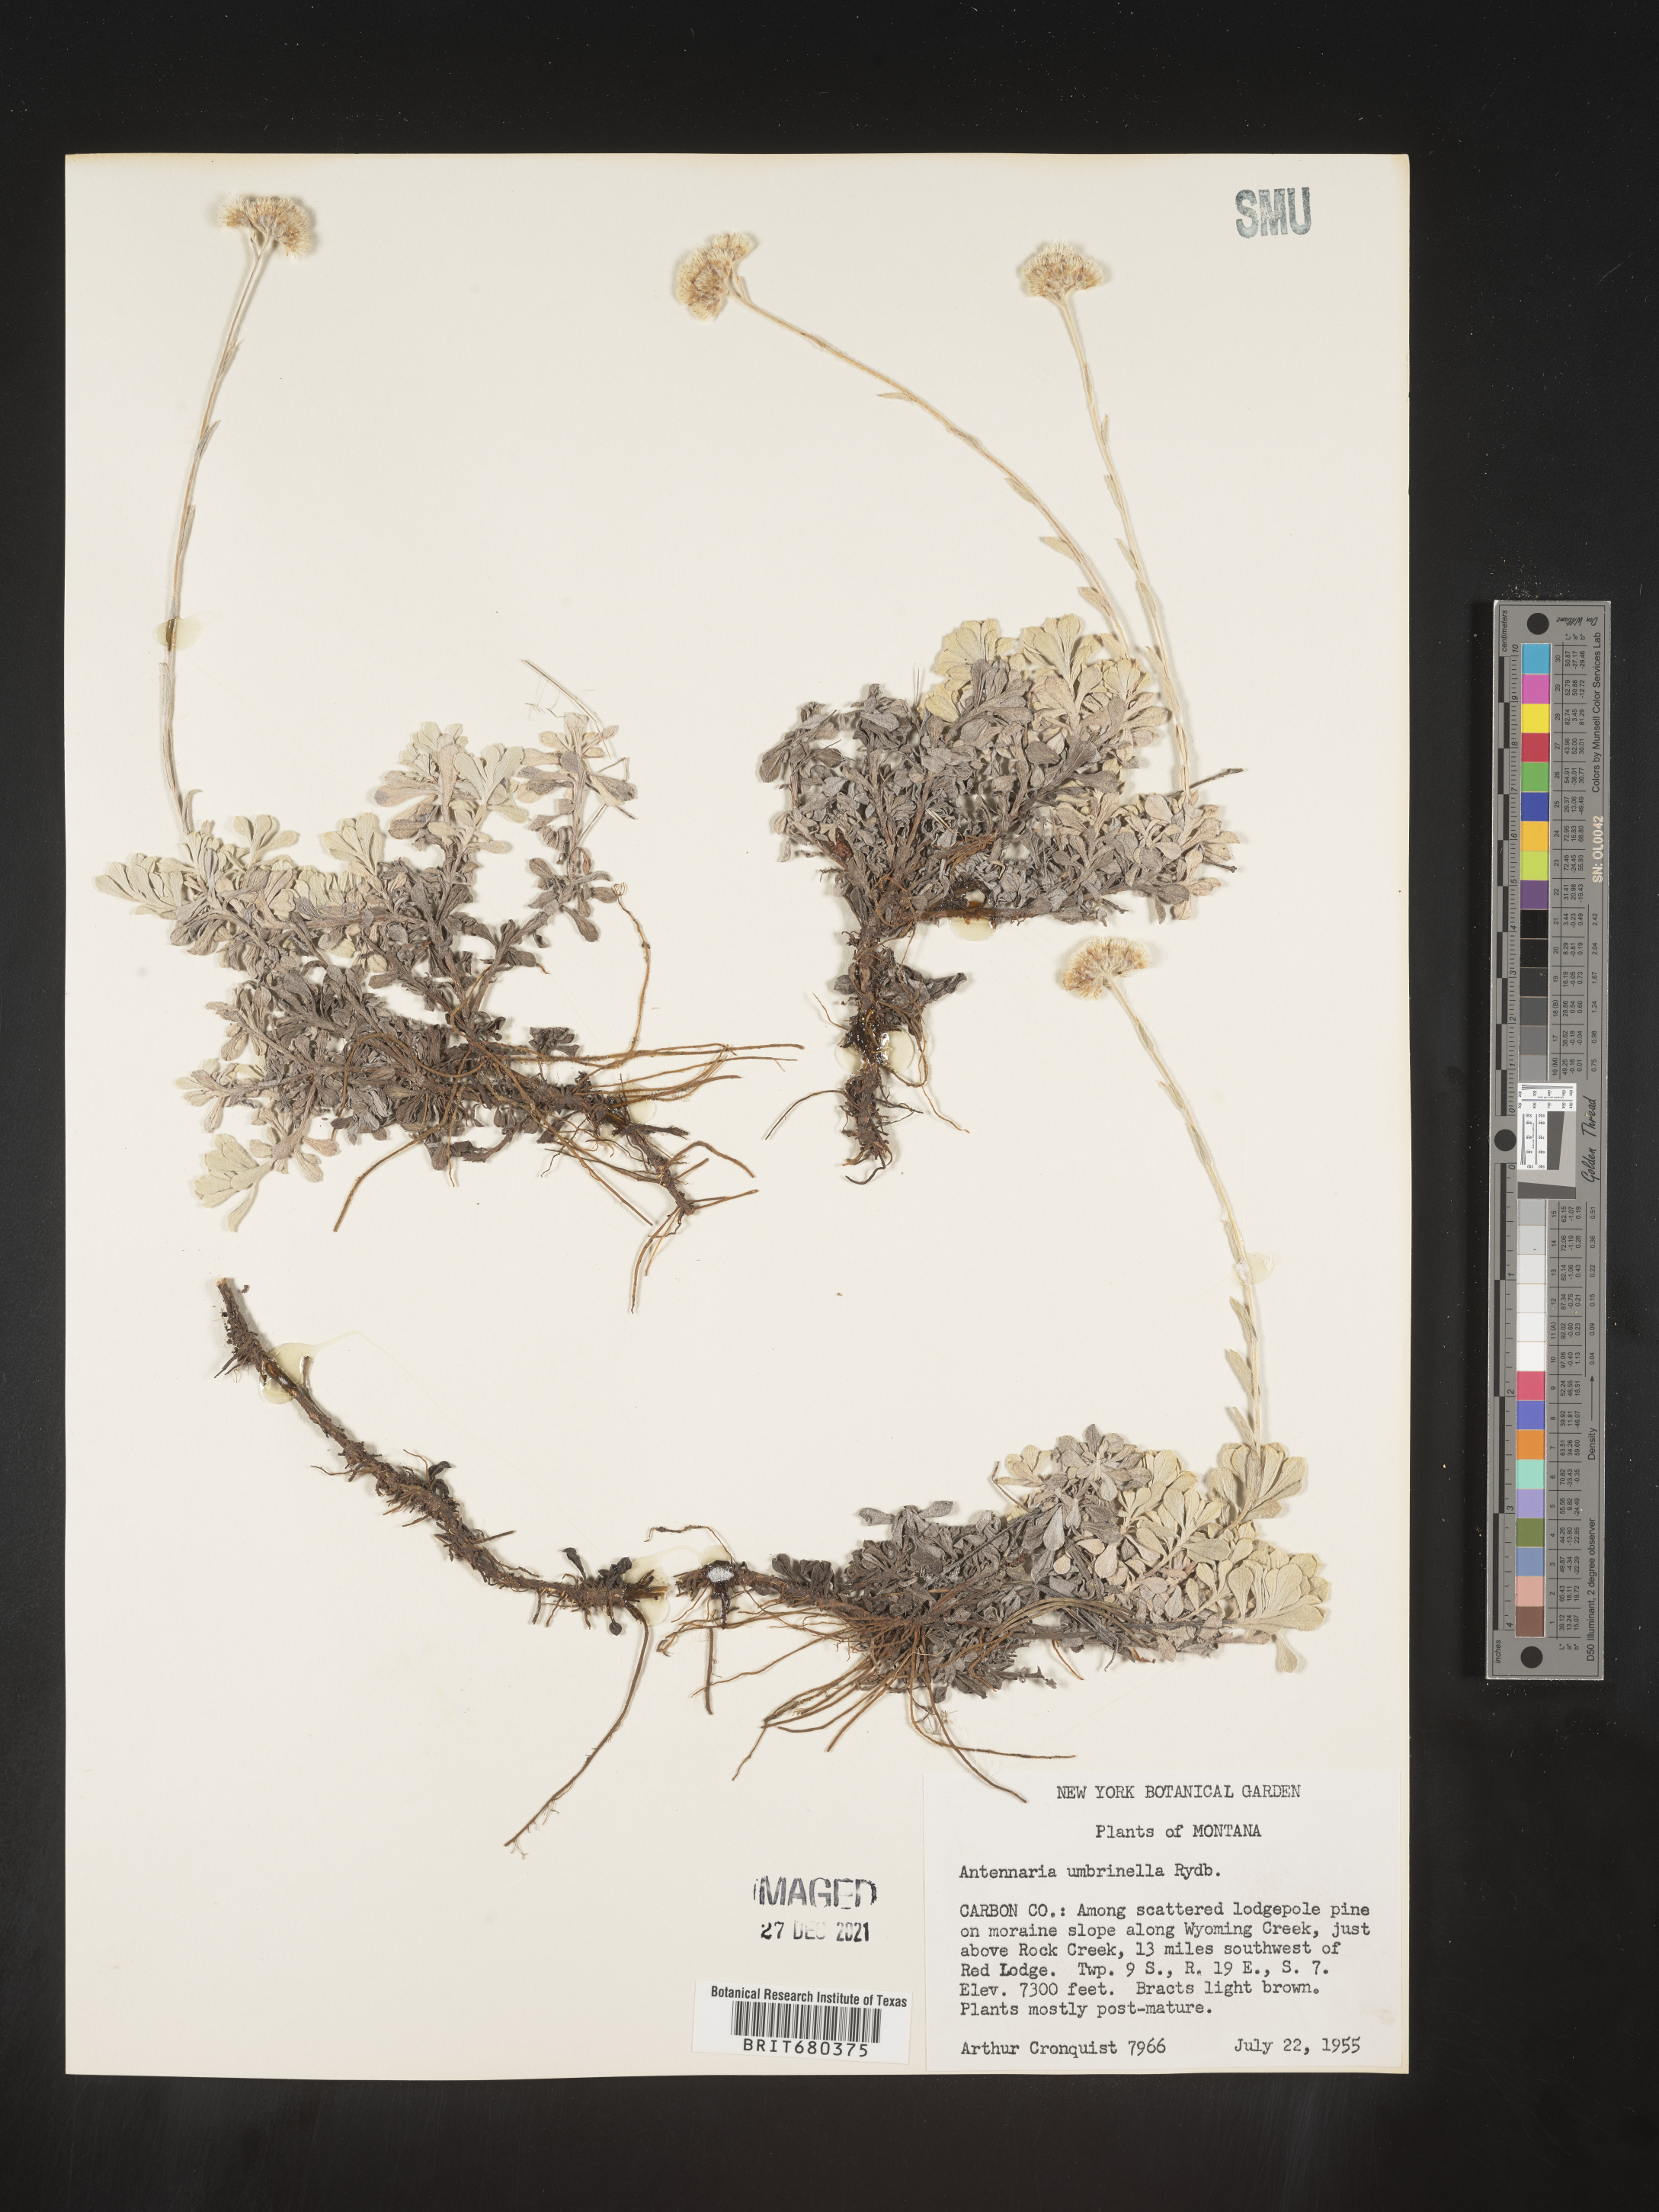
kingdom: Plantae
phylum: Tracheophyta
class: Magnoliopsida
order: Asterales
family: Asteraceae
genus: Antennaria
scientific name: Antennaria umbrinella
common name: Brown pussytoes
